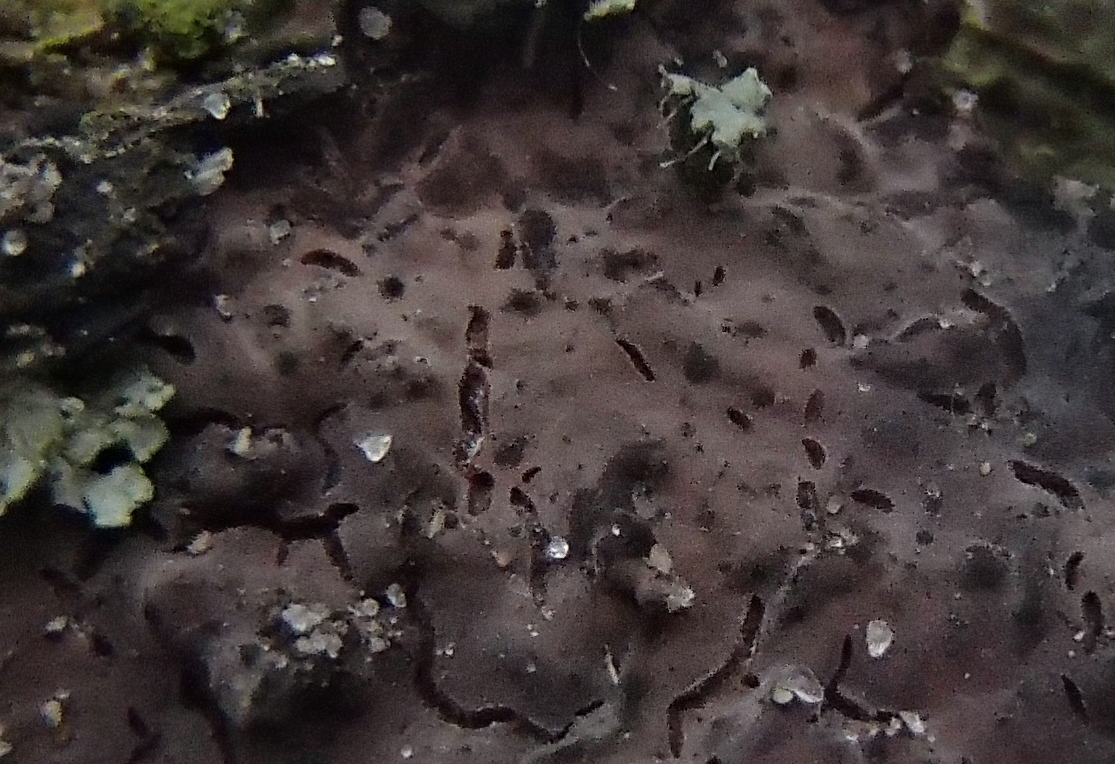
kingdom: Fungi
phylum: Basidiomycota
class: Agaricomycetes
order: Russulales
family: Peniophoraceae
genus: Peniophora
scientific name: Peniophora quercina
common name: ege-voksskind
